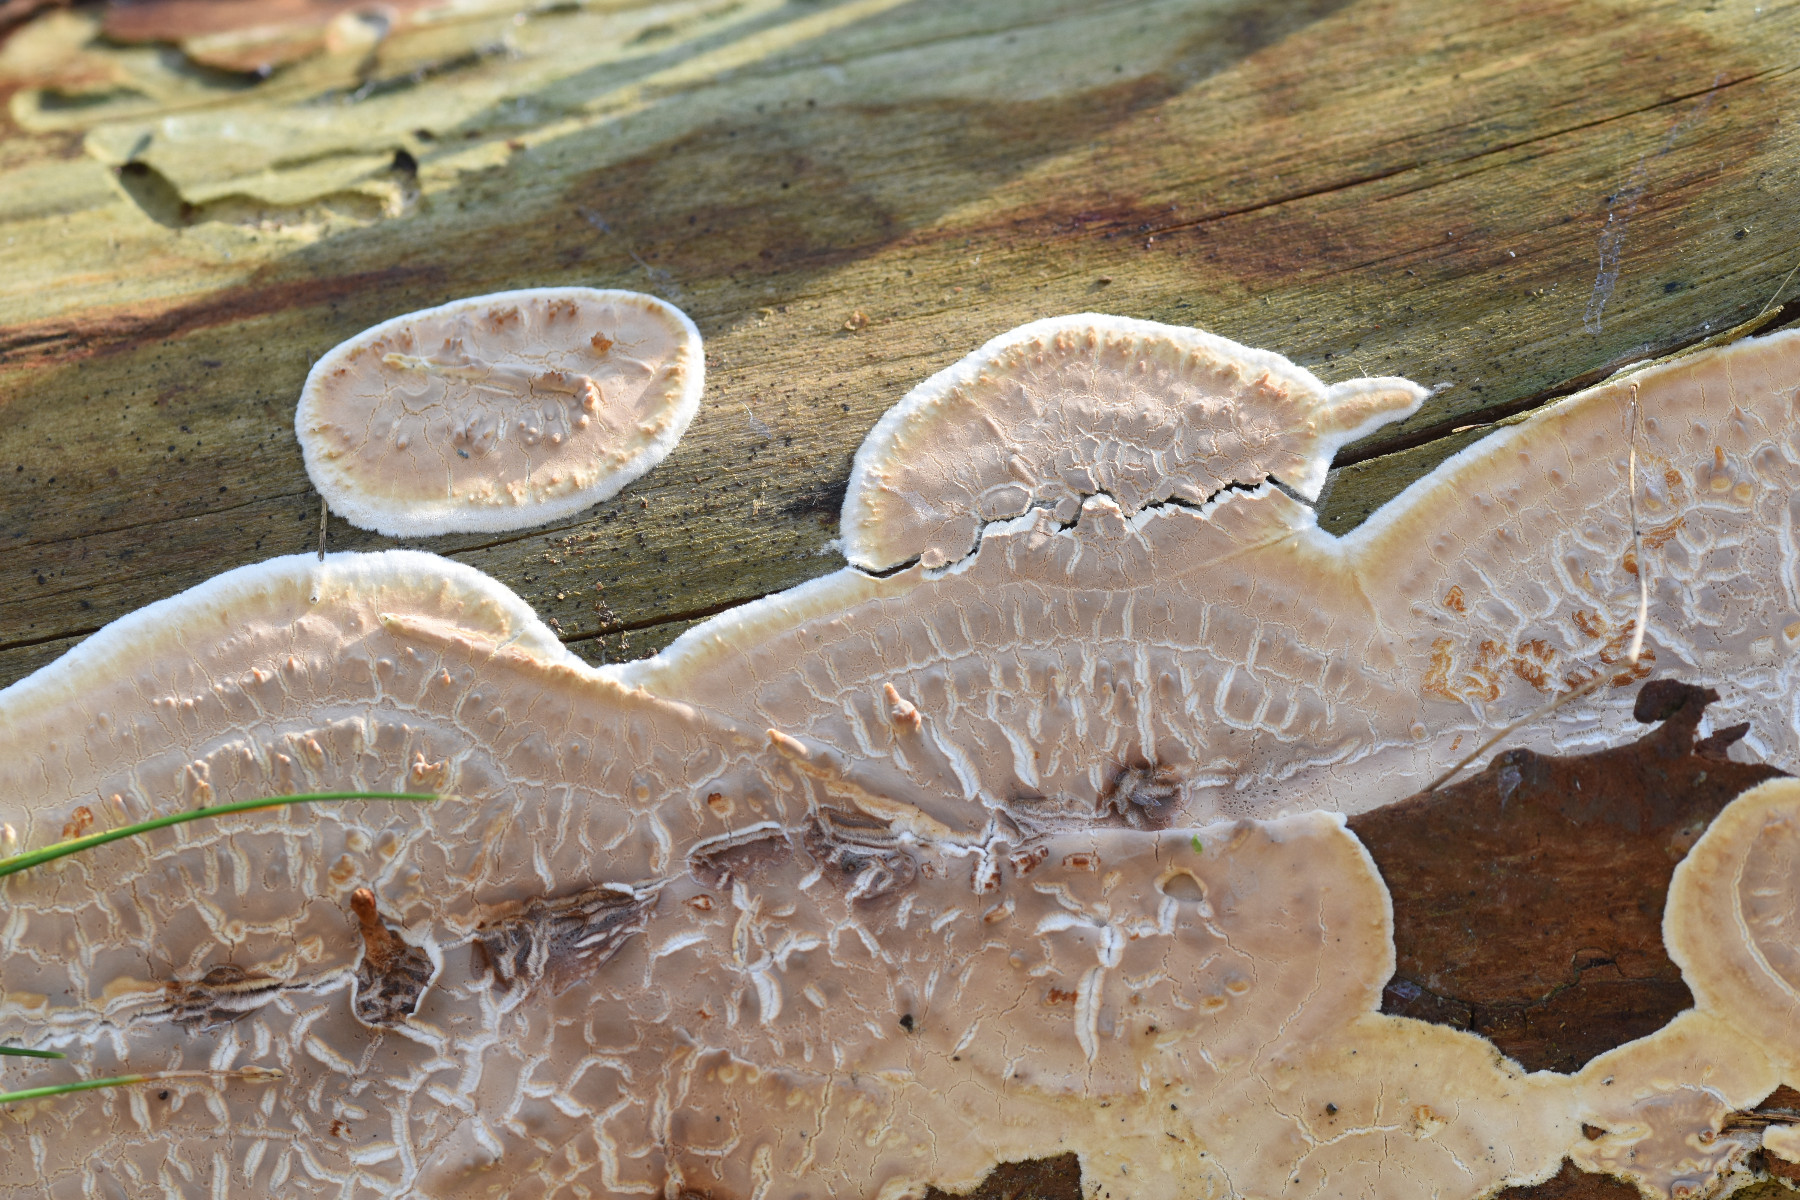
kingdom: Fungi
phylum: Basidiomycota
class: Agaricomycetes
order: Polyporales
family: Dacryobolaceae
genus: Dacryobolus
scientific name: Dacryobolus karstenii
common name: glat vulkanskorpe
